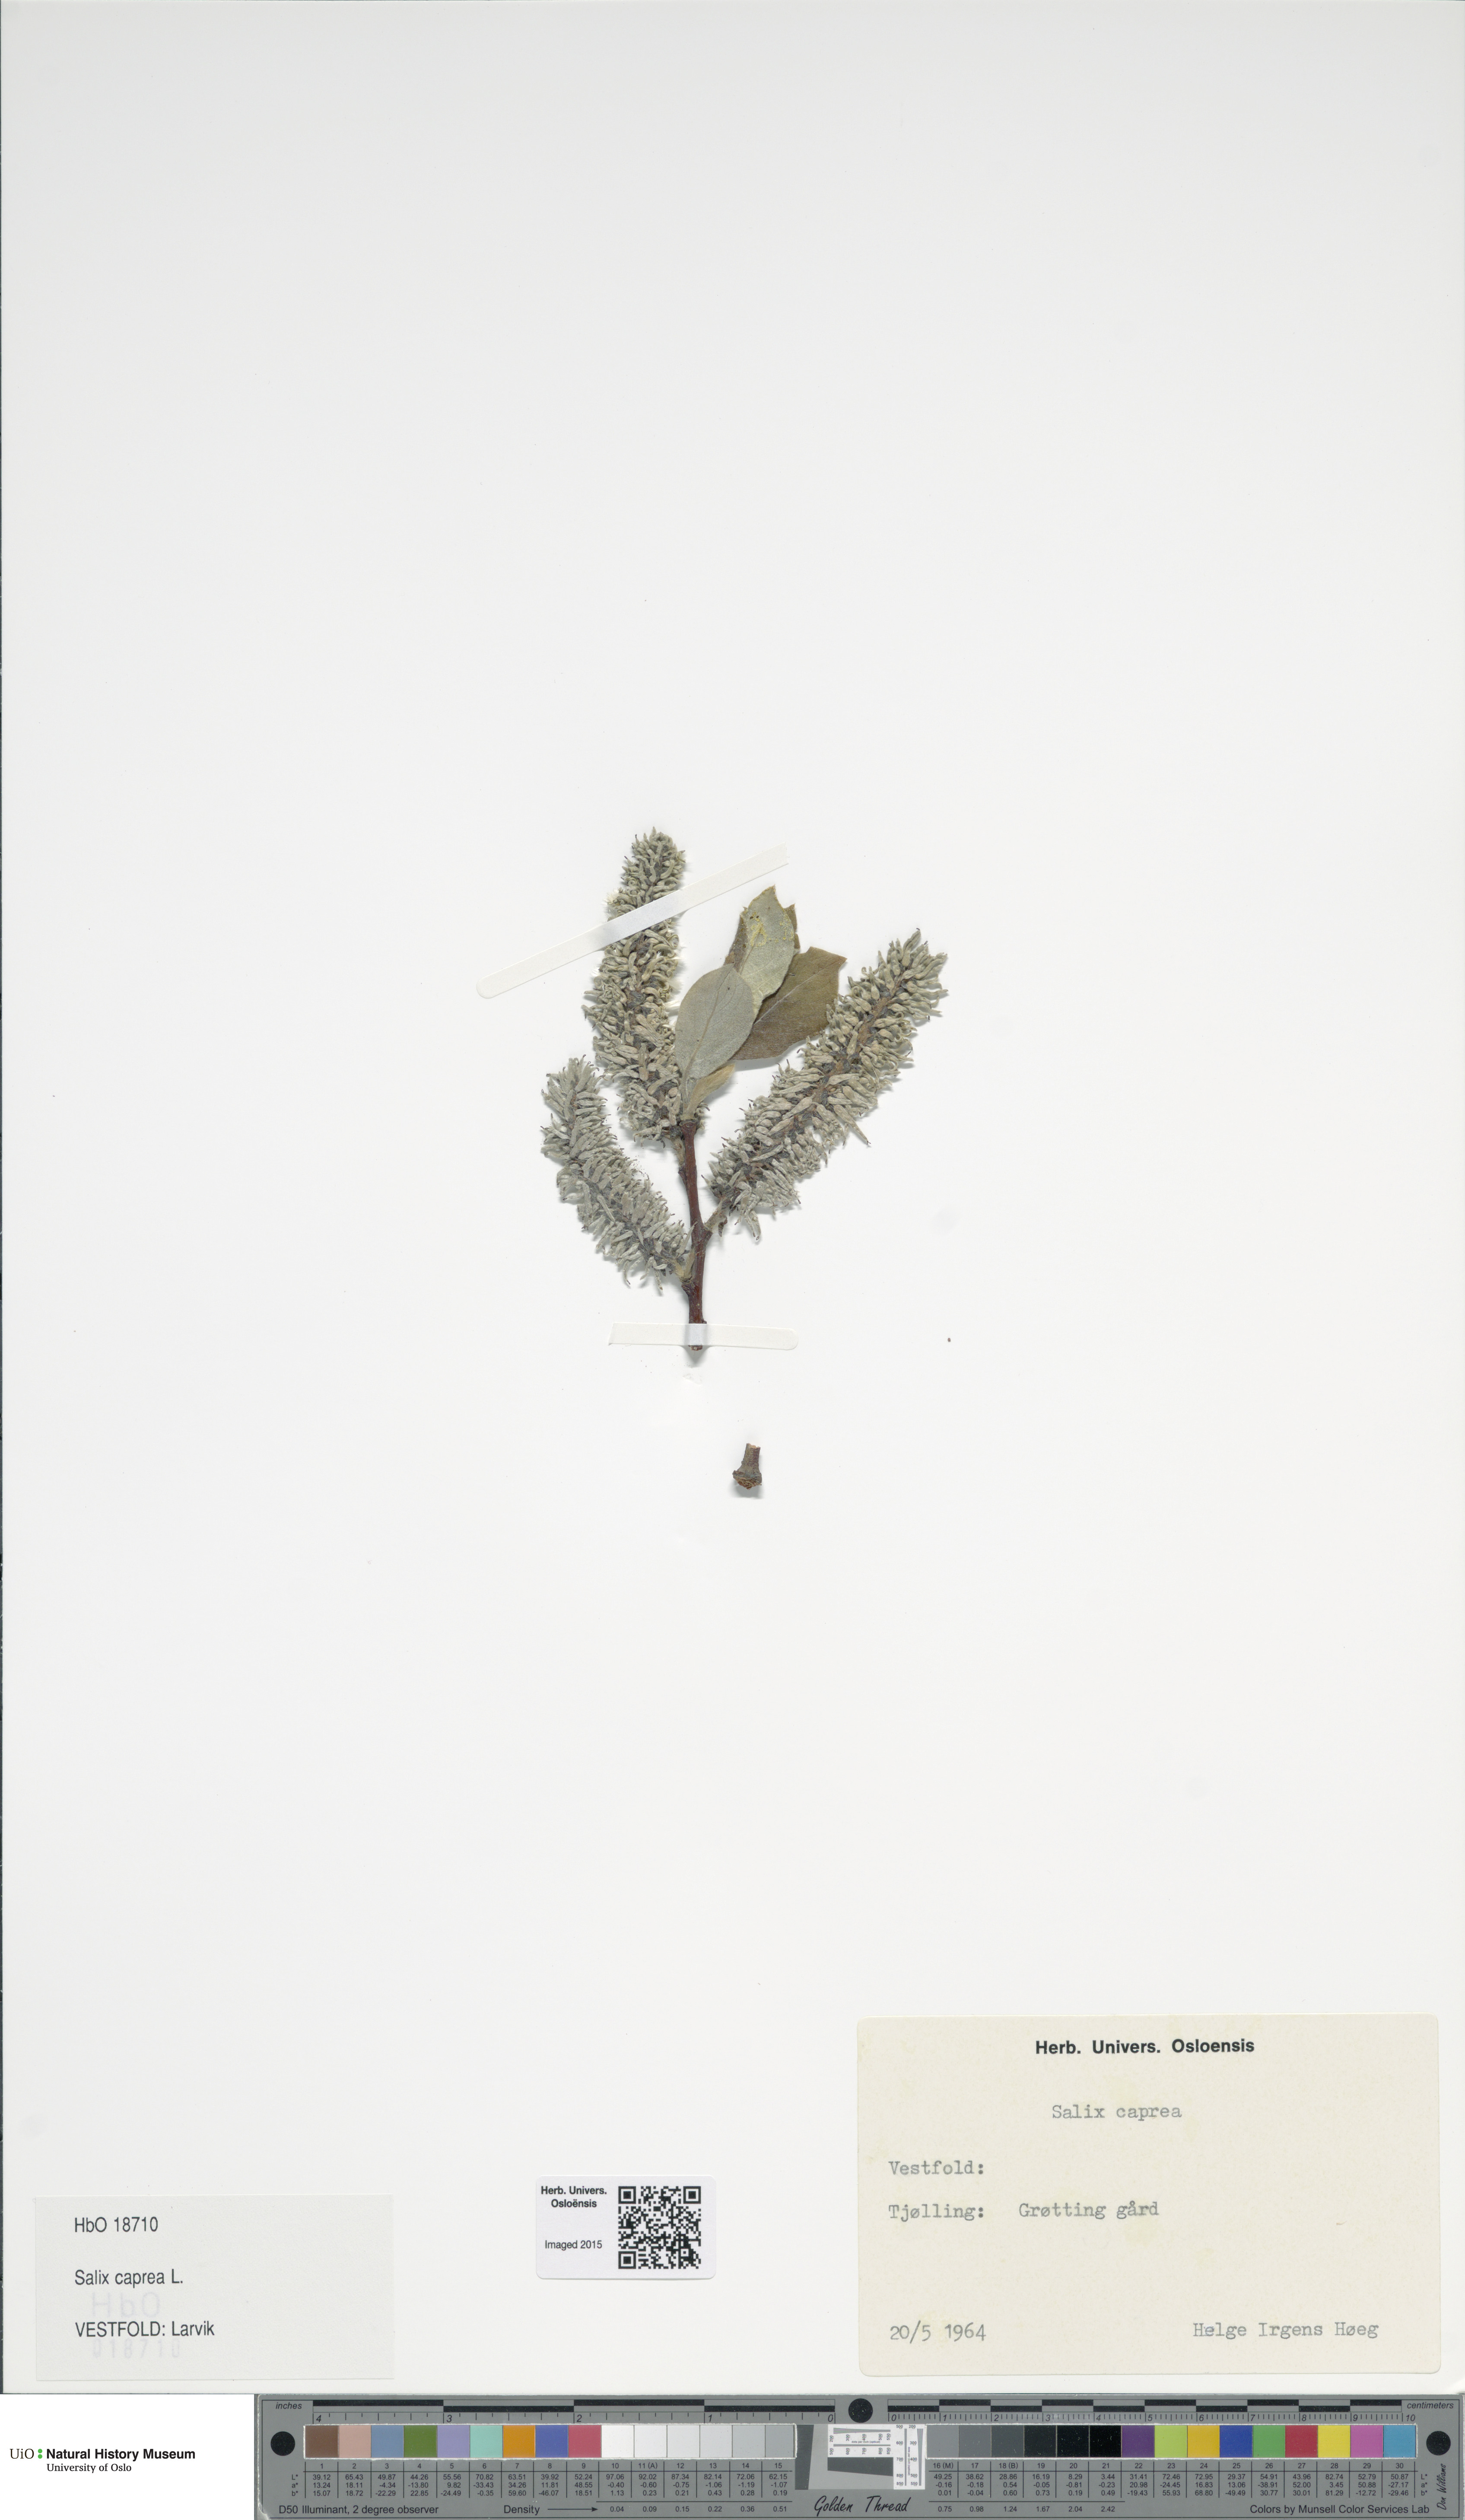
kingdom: Plantae
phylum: Tracheophyta
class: Magnoliopsida
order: Malpighiales
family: Salicaceae
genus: Salix
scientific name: Salix caprea
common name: Goat willow
